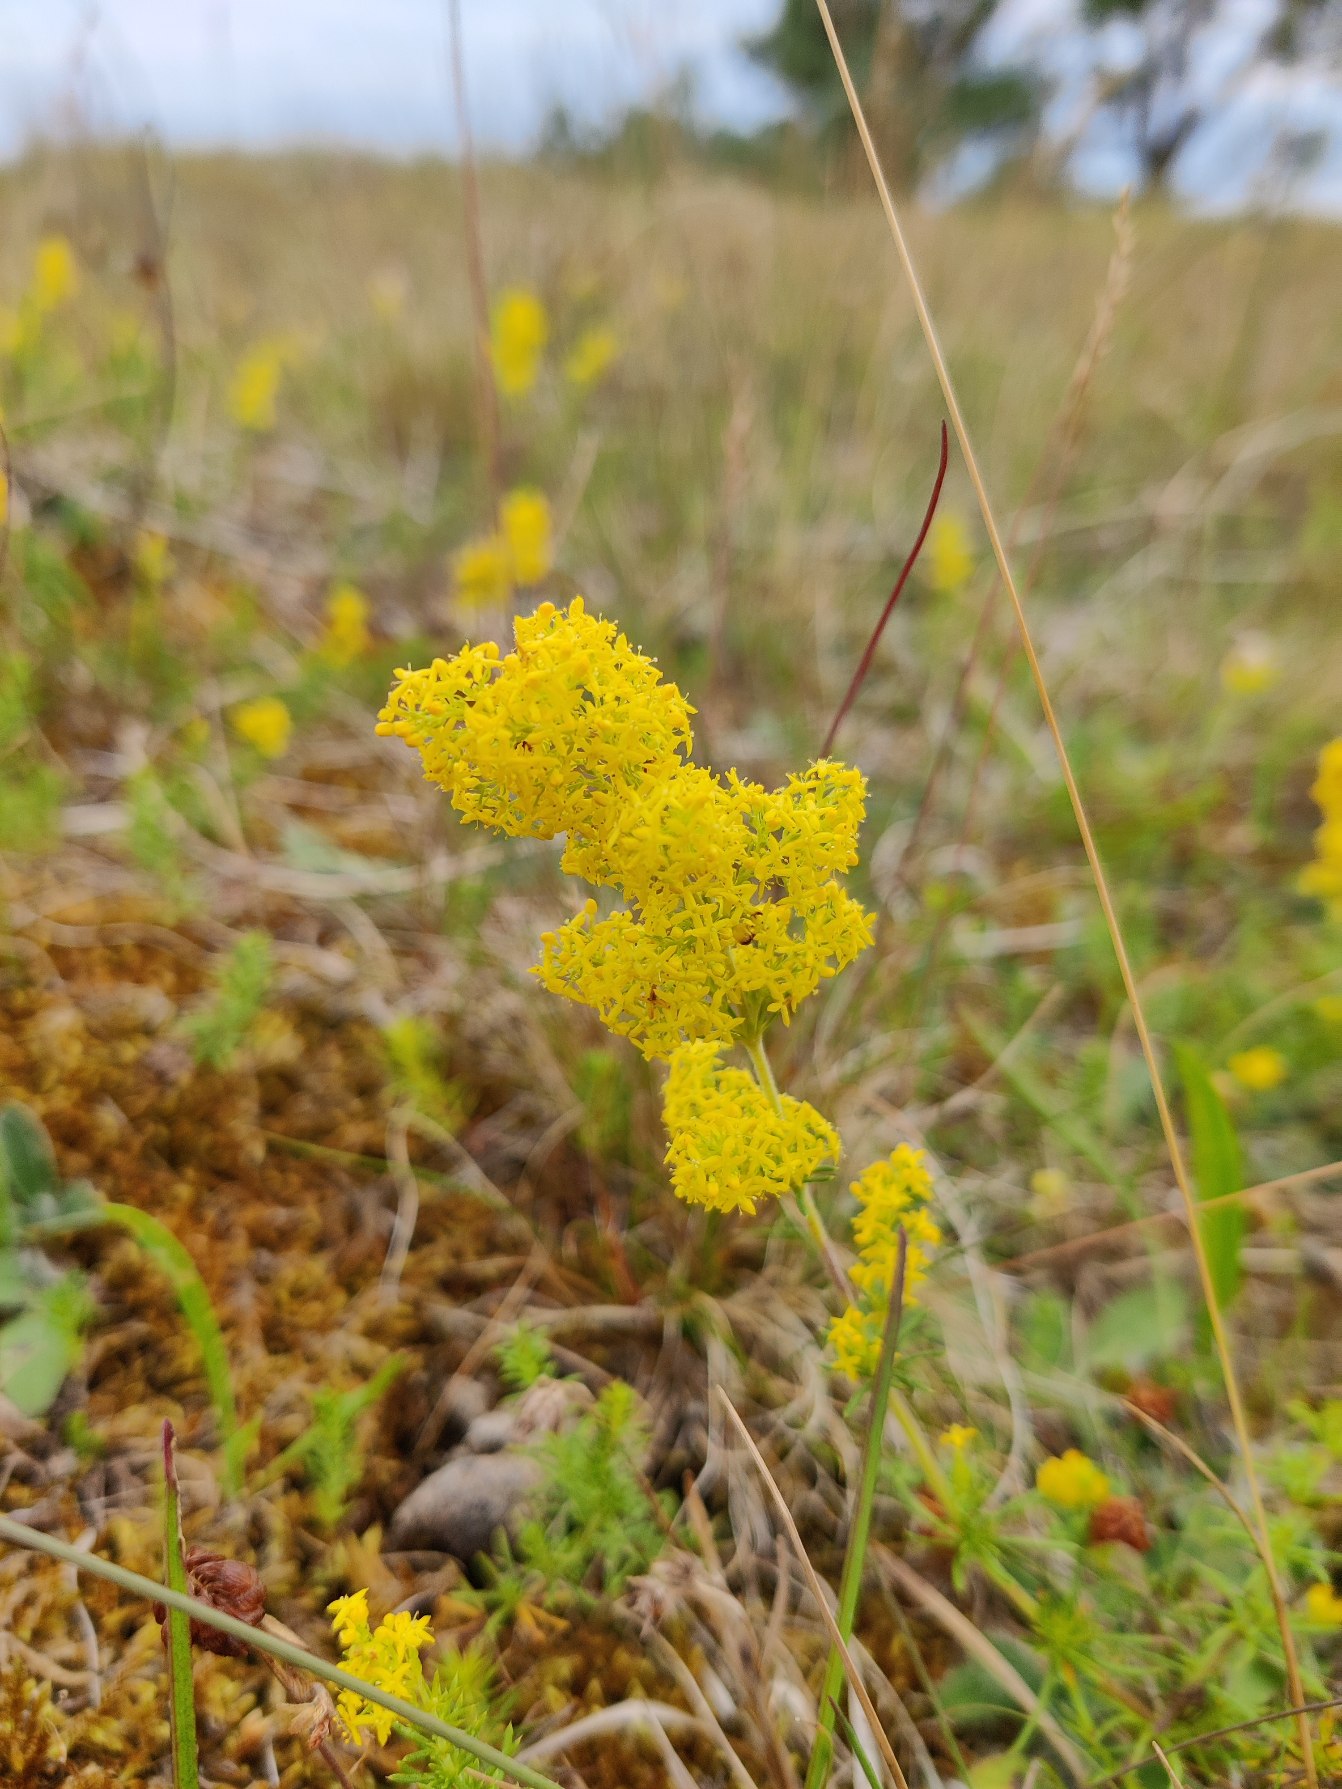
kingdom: Plantae
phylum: Tracheophyta
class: Magnoliopsida
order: Gentianales
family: Rubiaceae
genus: Galium
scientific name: Galium verum
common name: Gul snerre
